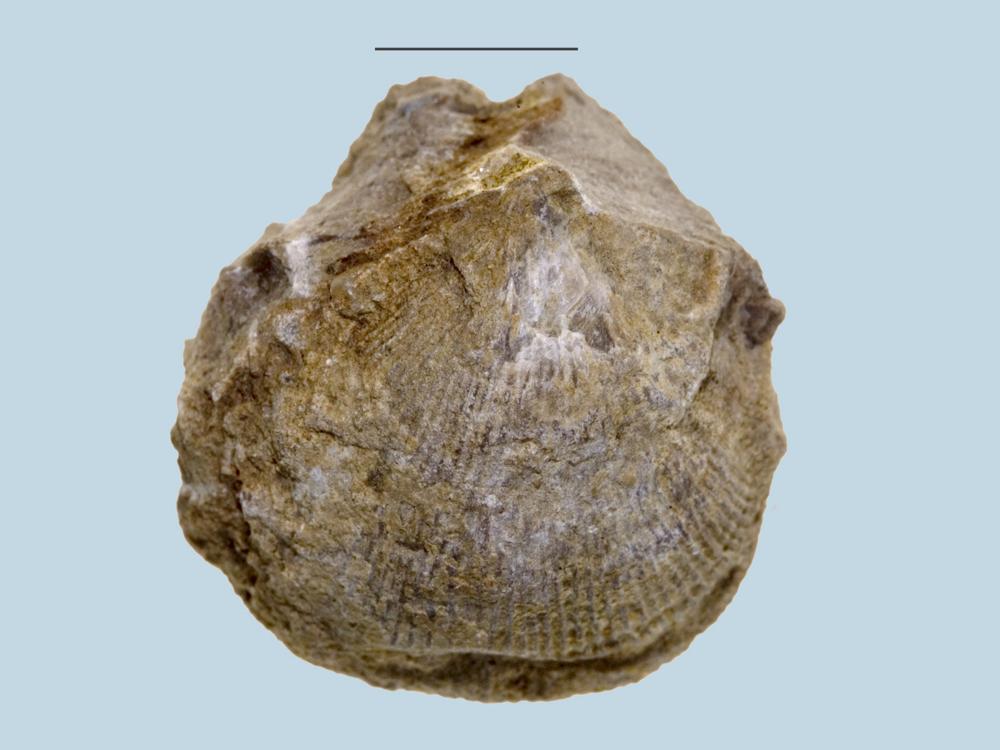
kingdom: Animalia
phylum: Brachiopoda
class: Rhynchonellata
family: Clitambonitidae
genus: Vellamo
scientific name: Vellamo Orthis verneuili
